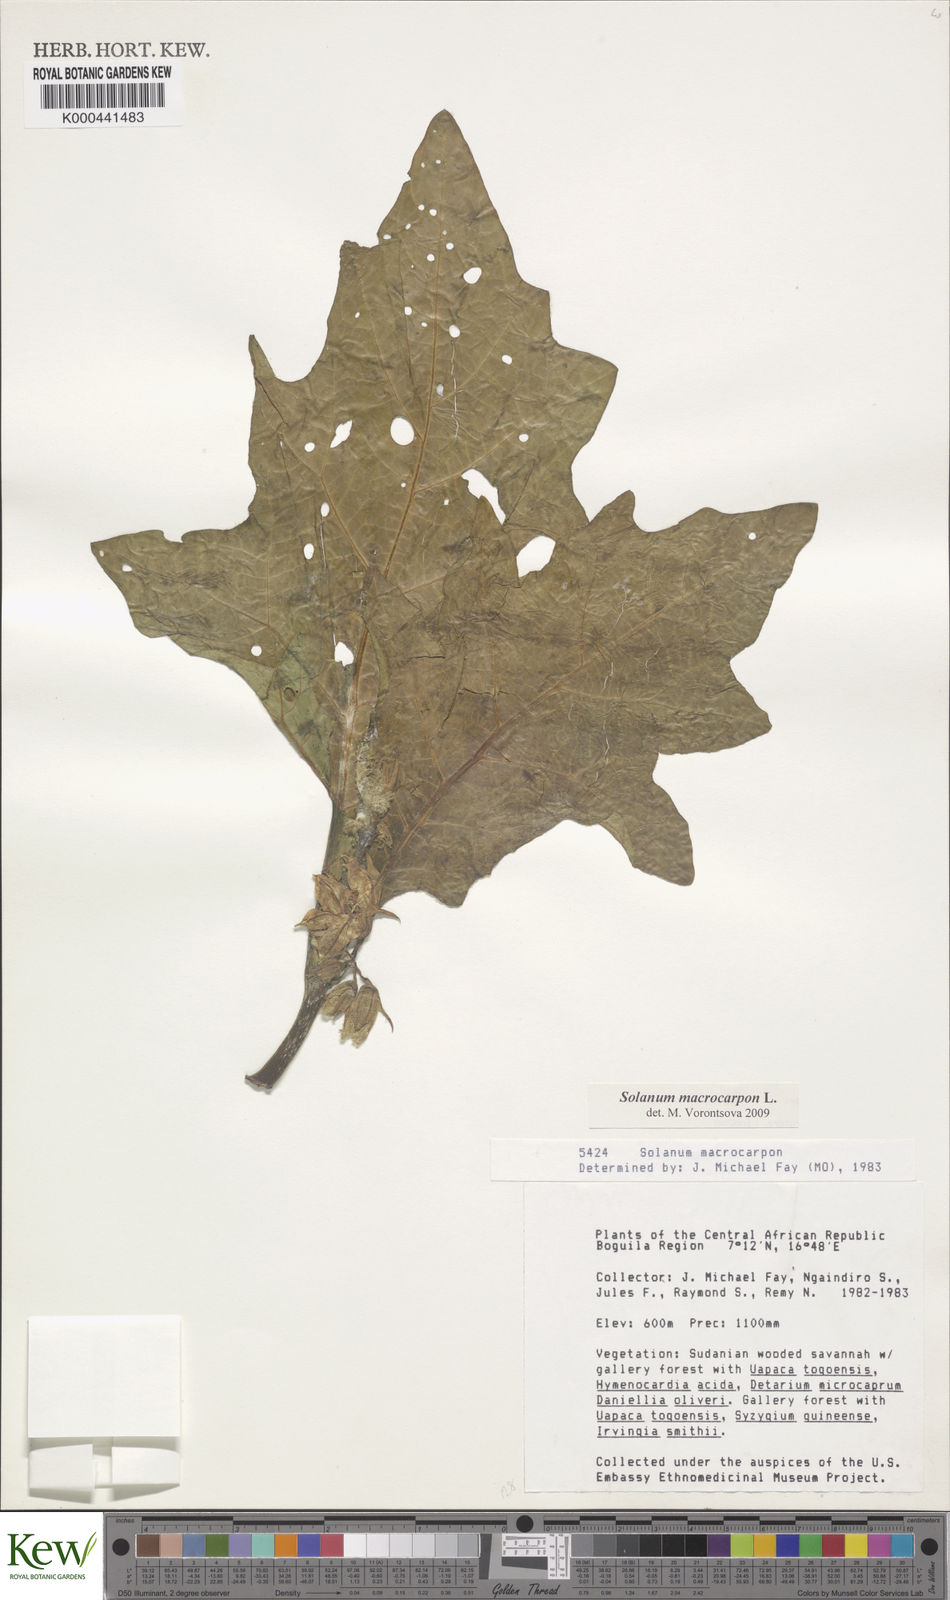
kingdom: Plantae
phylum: Tracheophyta
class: Magnoliopsida
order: Solanales
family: Solanaceae
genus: Solanum
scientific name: Solanum macrocarpon
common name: African eggplant
